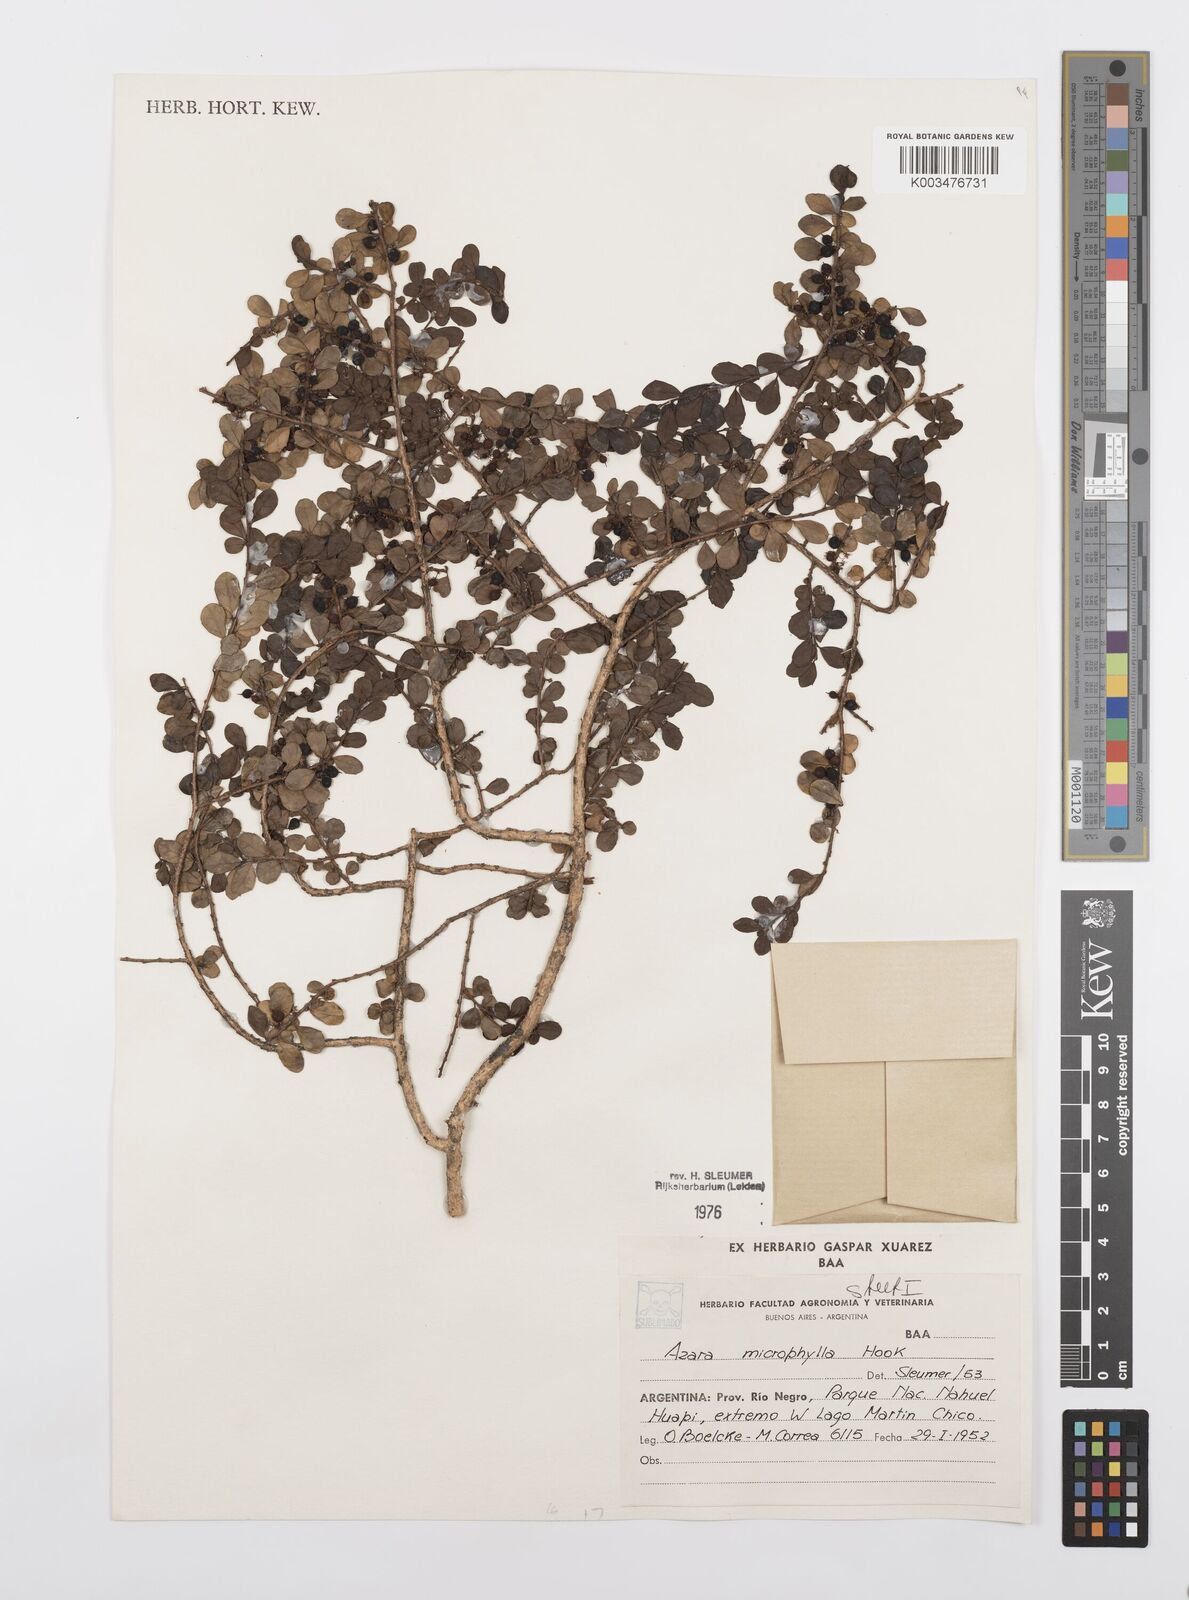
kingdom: Plantae
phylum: Tracheophyta
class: Magnoliopsida
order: Malpighiales
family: Salicaceae
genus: Azara
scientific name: Azara microphylla
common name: Box-leaf azara
